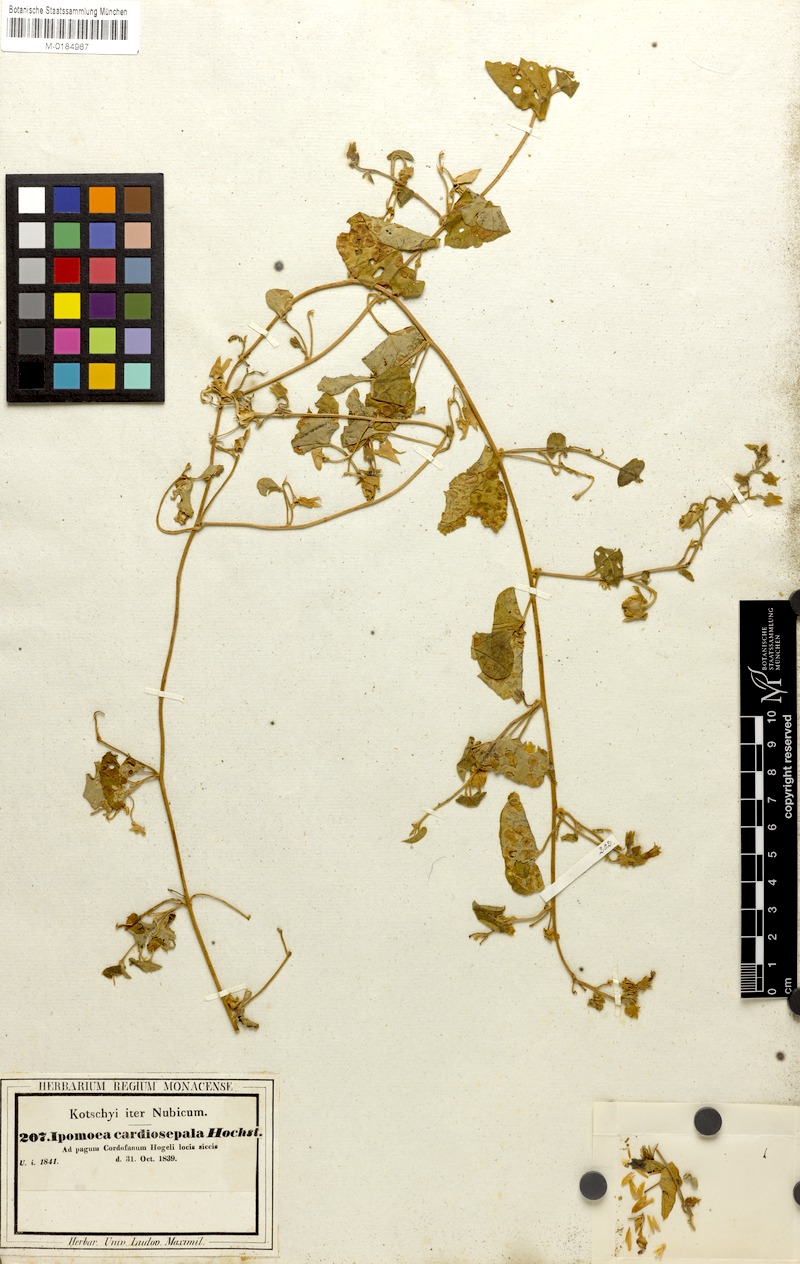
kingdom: Plantae
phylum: Tracheophyta
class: Magnoliopsida
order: Solanales
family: Convolvulaceae
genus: Ipomoea
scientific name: Ipomoea sinensis
